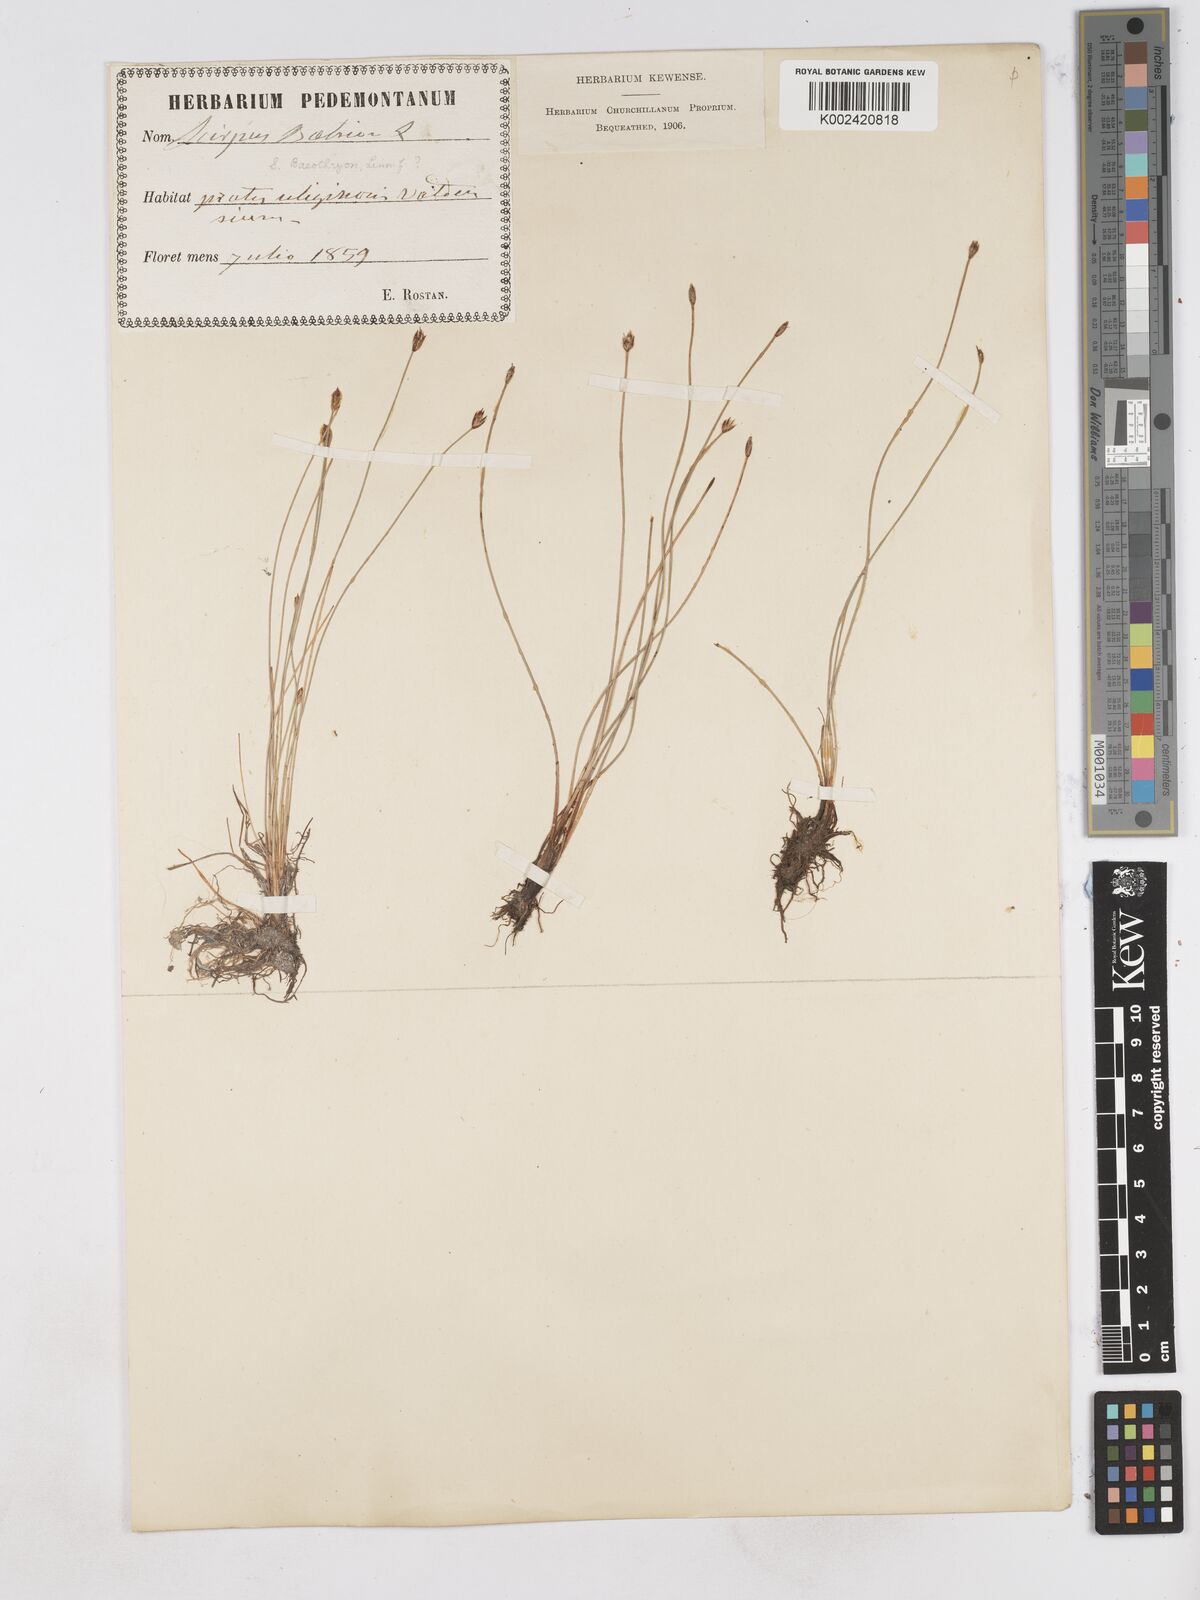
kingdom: Plantae
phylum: Tracheophyta
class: Liliopsida
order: Poales
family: Cyperaceae
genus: Eleocharis
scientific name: Eleocharis quinqueflora
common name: Few-flowered spike-rush
